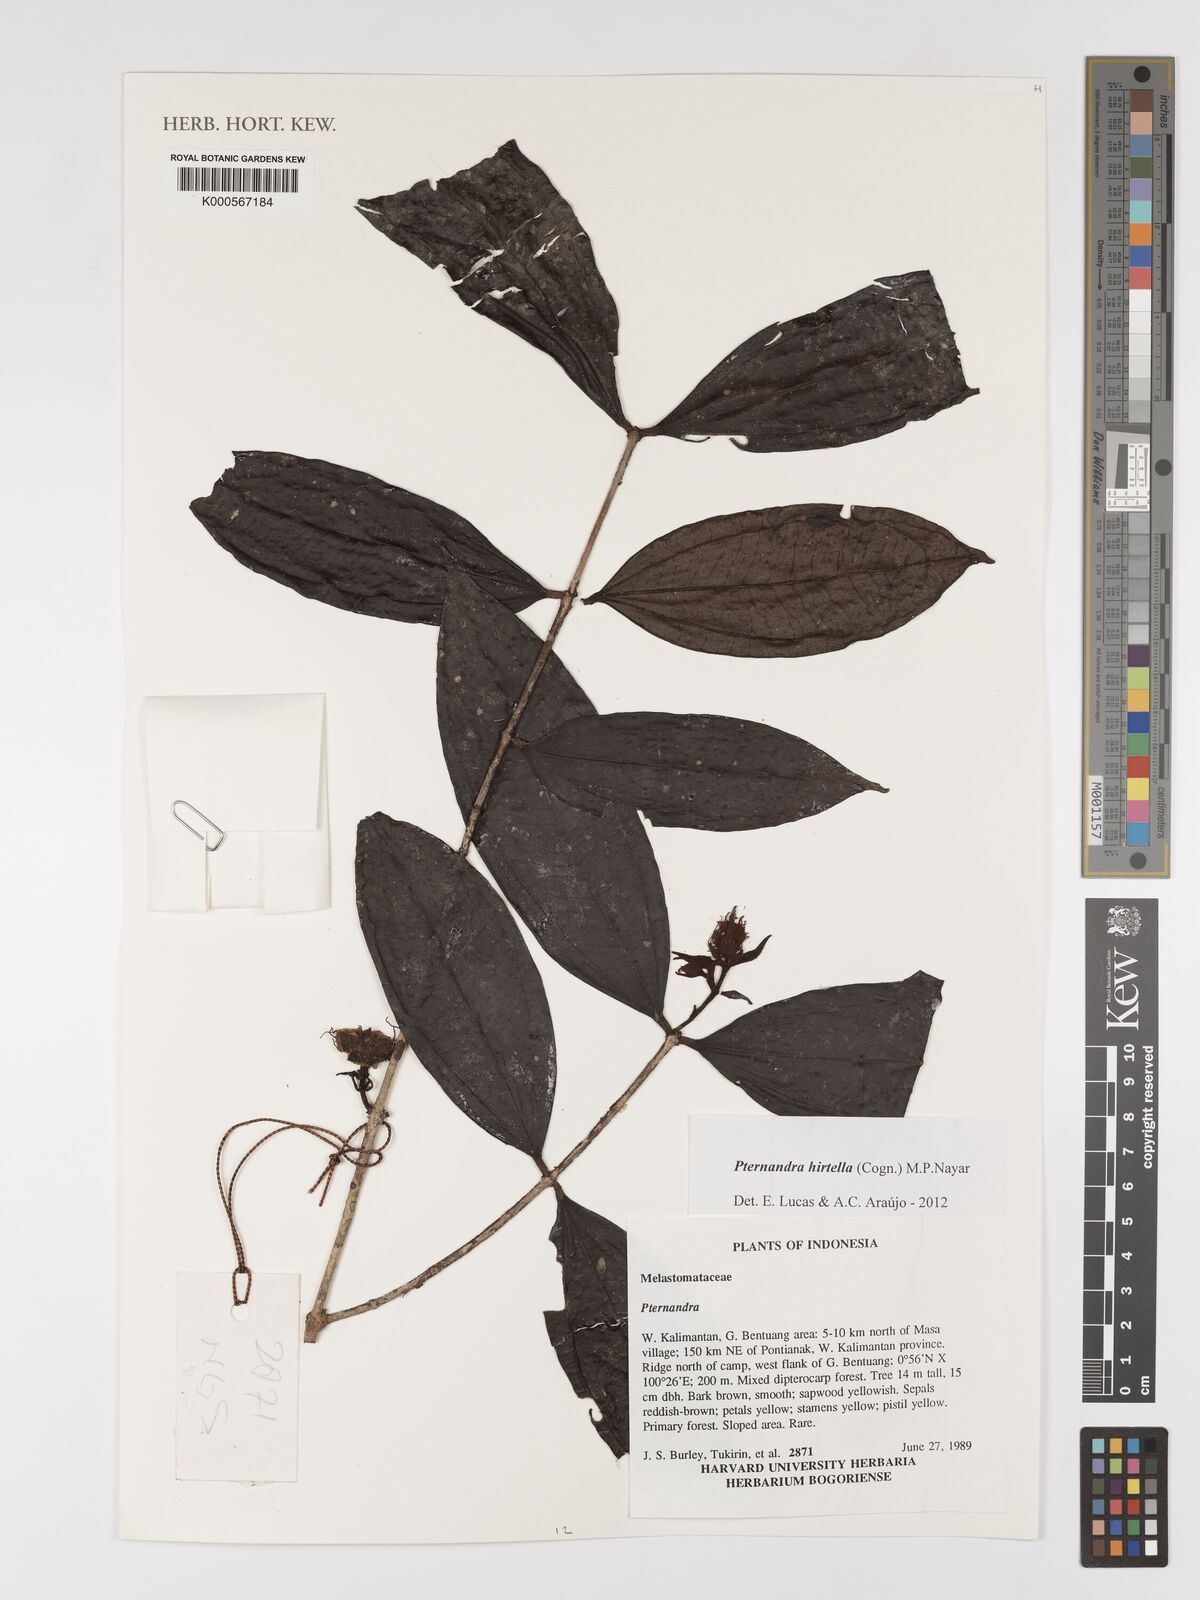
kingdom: Plantae
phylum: Tracheophyta
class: Magnoliopsida
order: Myrtales
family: Melastomataceae
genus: Pternandra
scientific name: Pternandra hirtella
